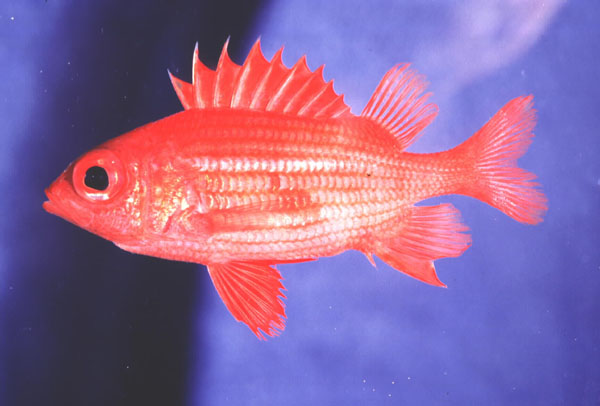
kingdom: Animalia
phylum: Chordata
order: Beryciformes
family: Holocentridae
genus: Sargocentron
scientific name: Sargocentron inaequalis
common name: Lattice squirrelfish
